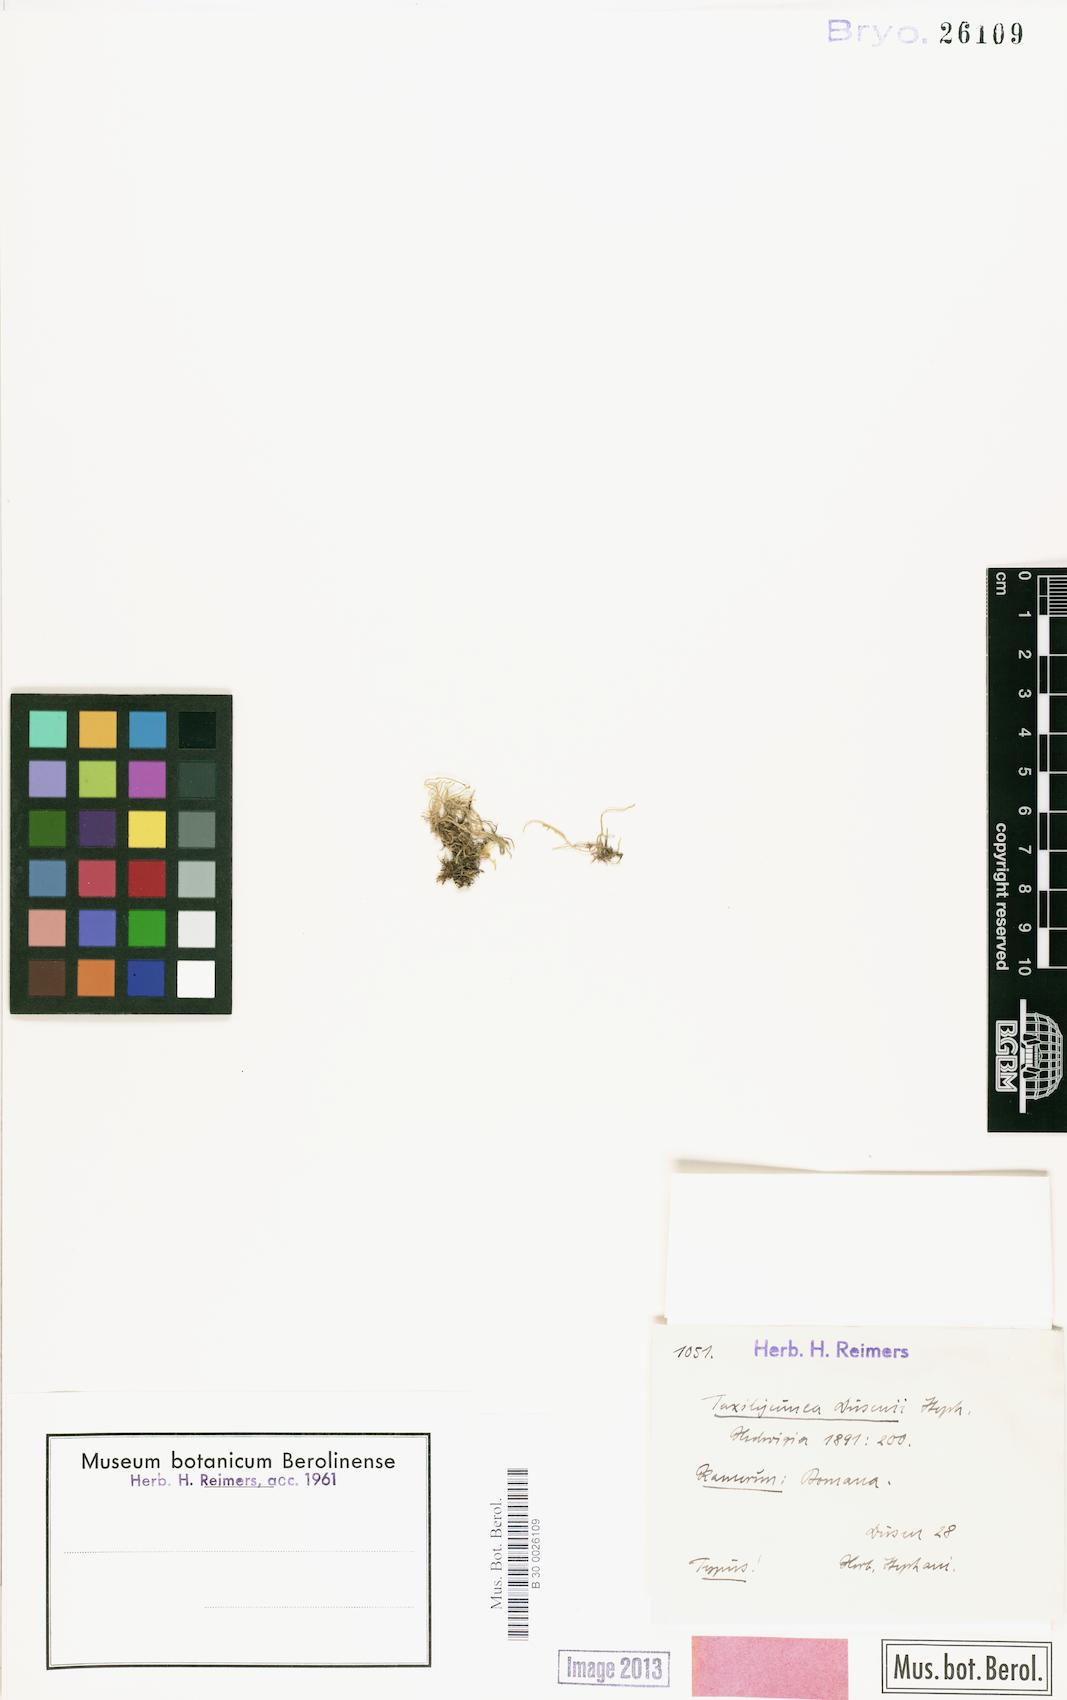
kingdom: Plantae
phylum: Marchantiophyta
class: Jungermanniopsida
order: Porellales
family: Lejeuneaceae
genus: Lejeunea
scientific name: Lejeunea ramosissima
